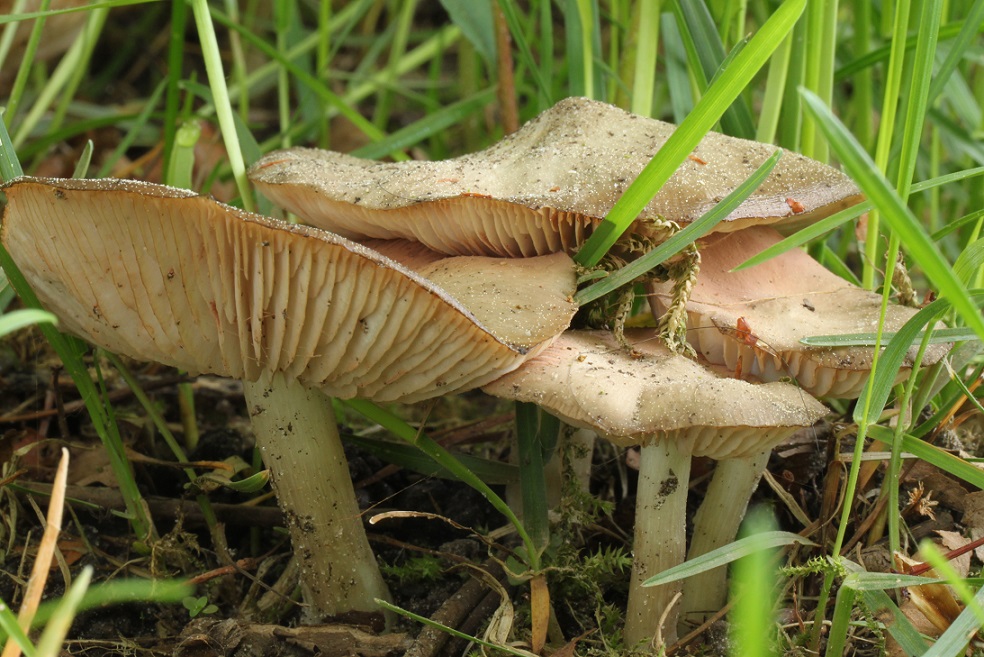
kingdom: Fungi
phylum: Basidiomycota
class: Agaricomycetes
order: Agaricales
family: Entolomataceae
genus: Entoloma
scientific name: Entoloma clypeatum
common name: flammet rødblad
